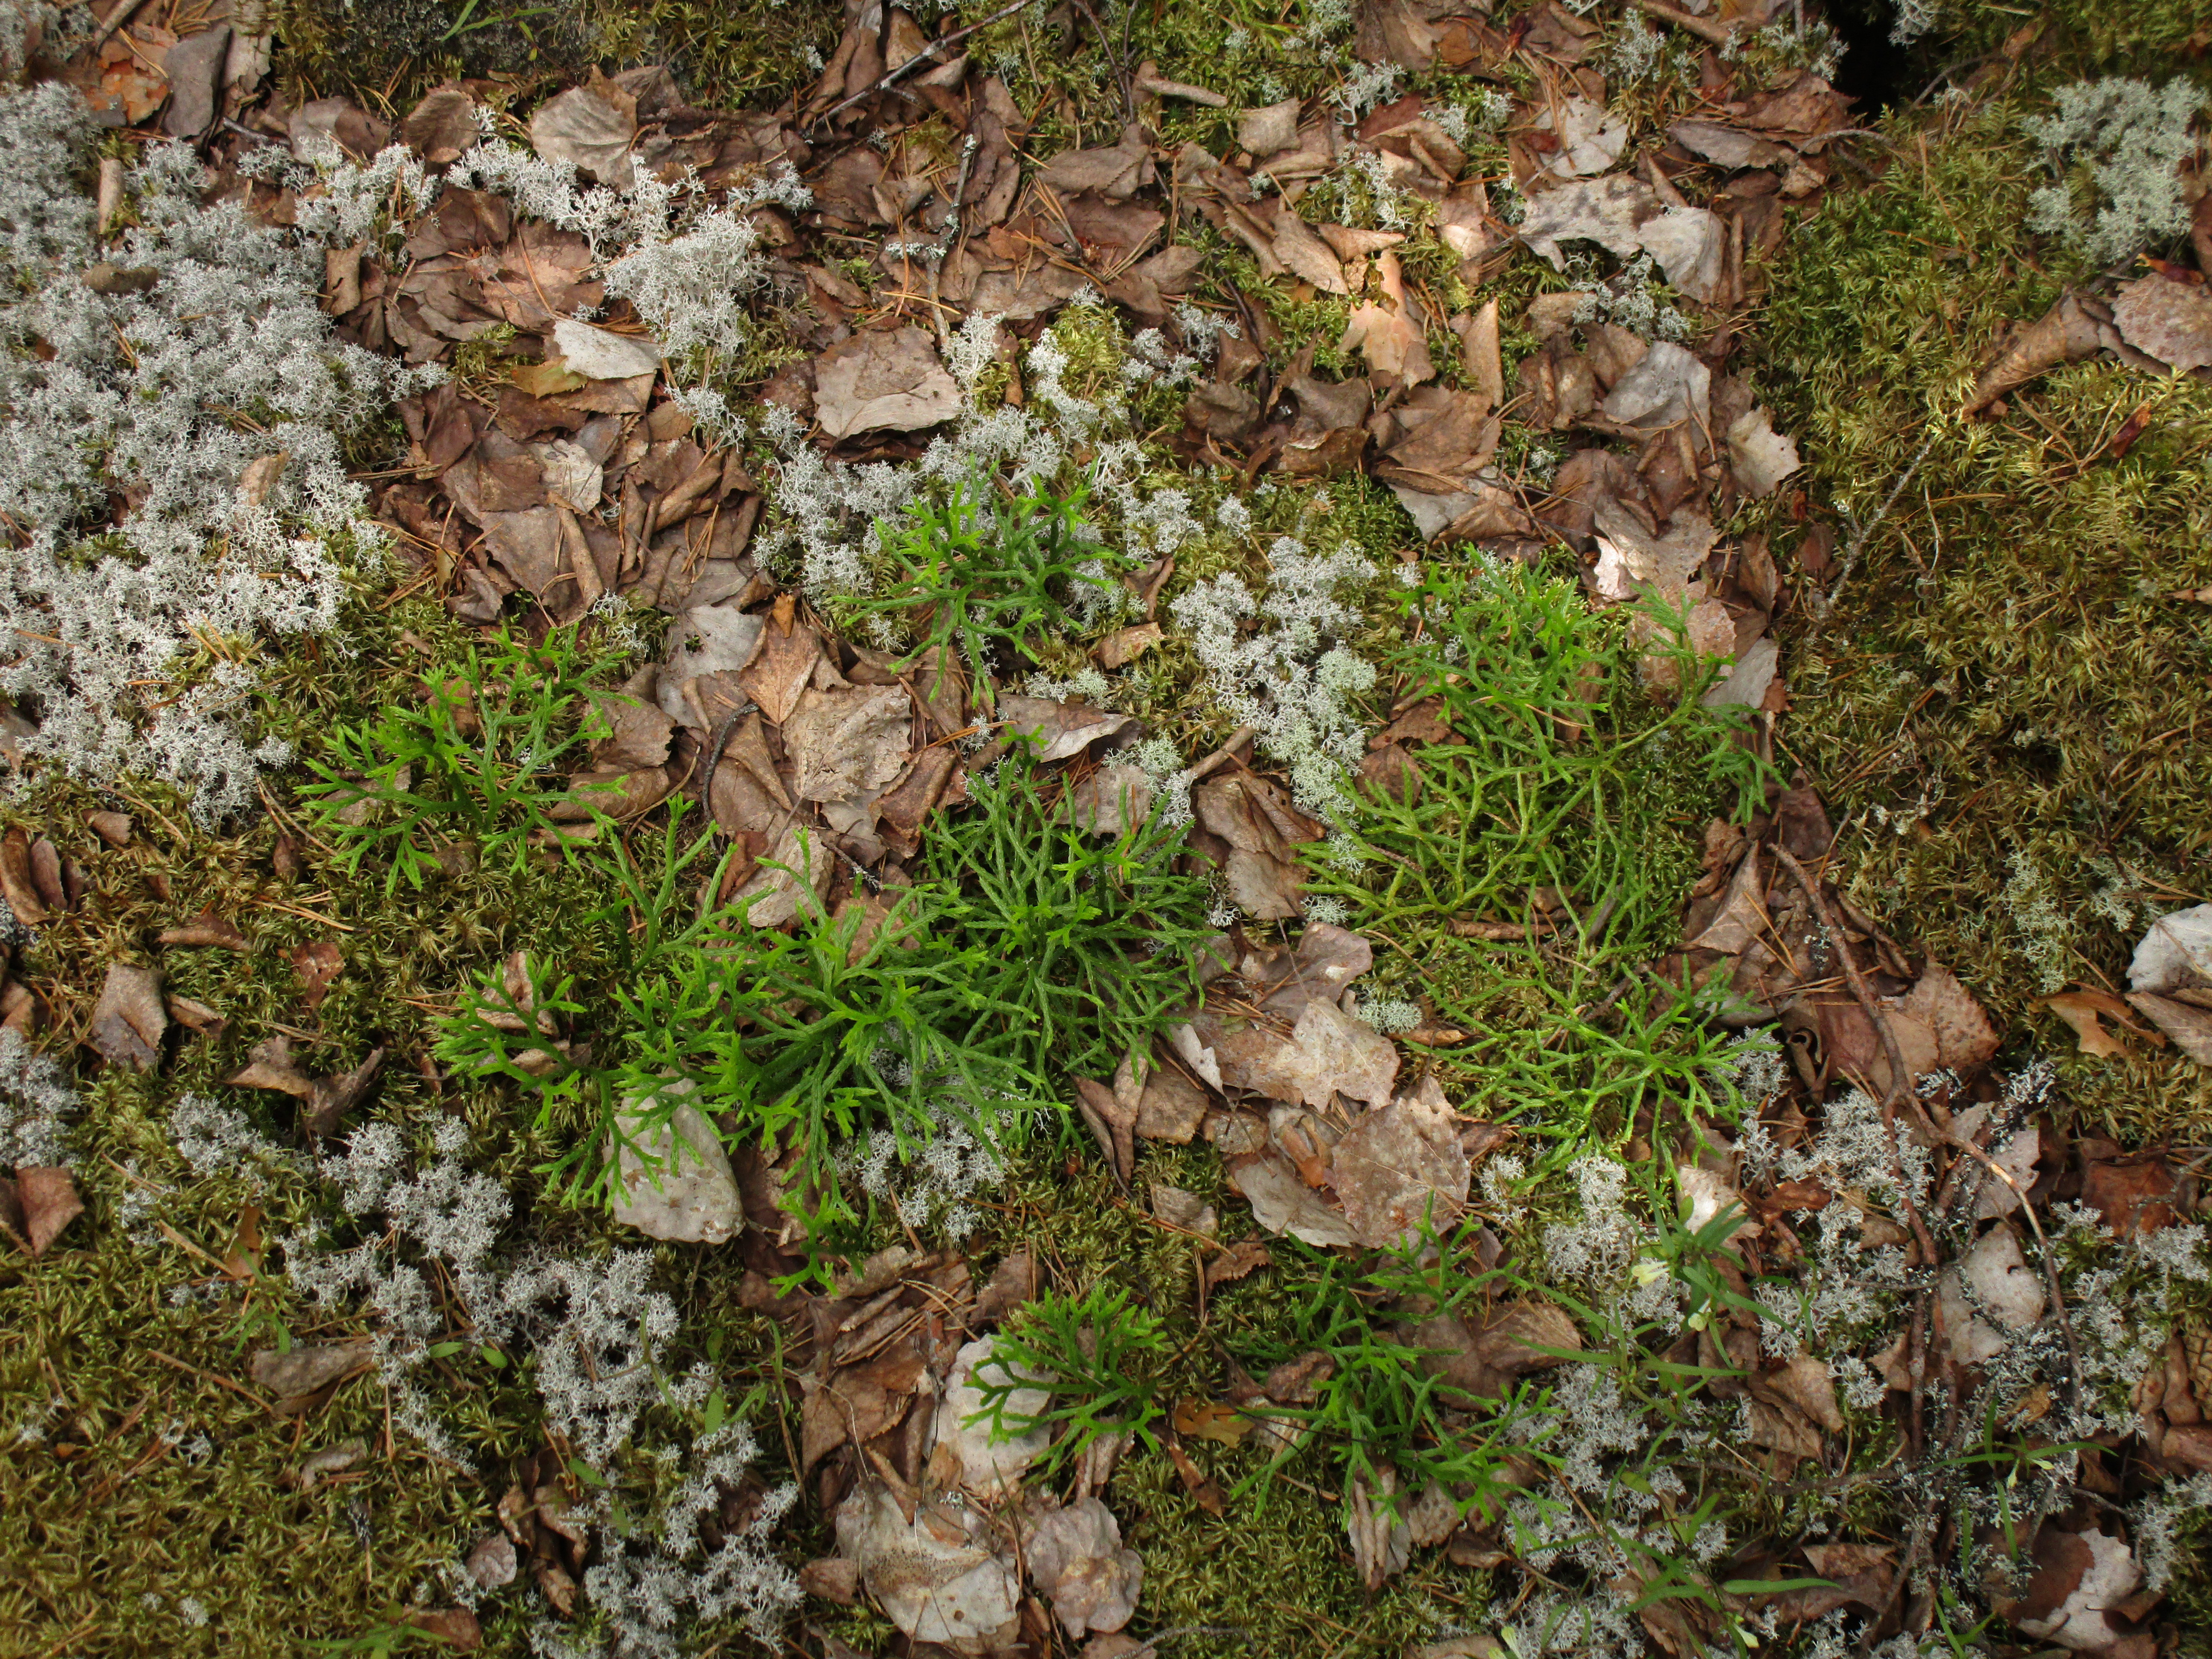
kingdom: Plantae
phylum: Tracheophyta
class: Lycopodiopsida
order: Lycopodiales
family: Lycopodiaceae
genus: Diphasiastrum
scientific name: Diphasiastrum complanatum
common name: Northern running-pine
